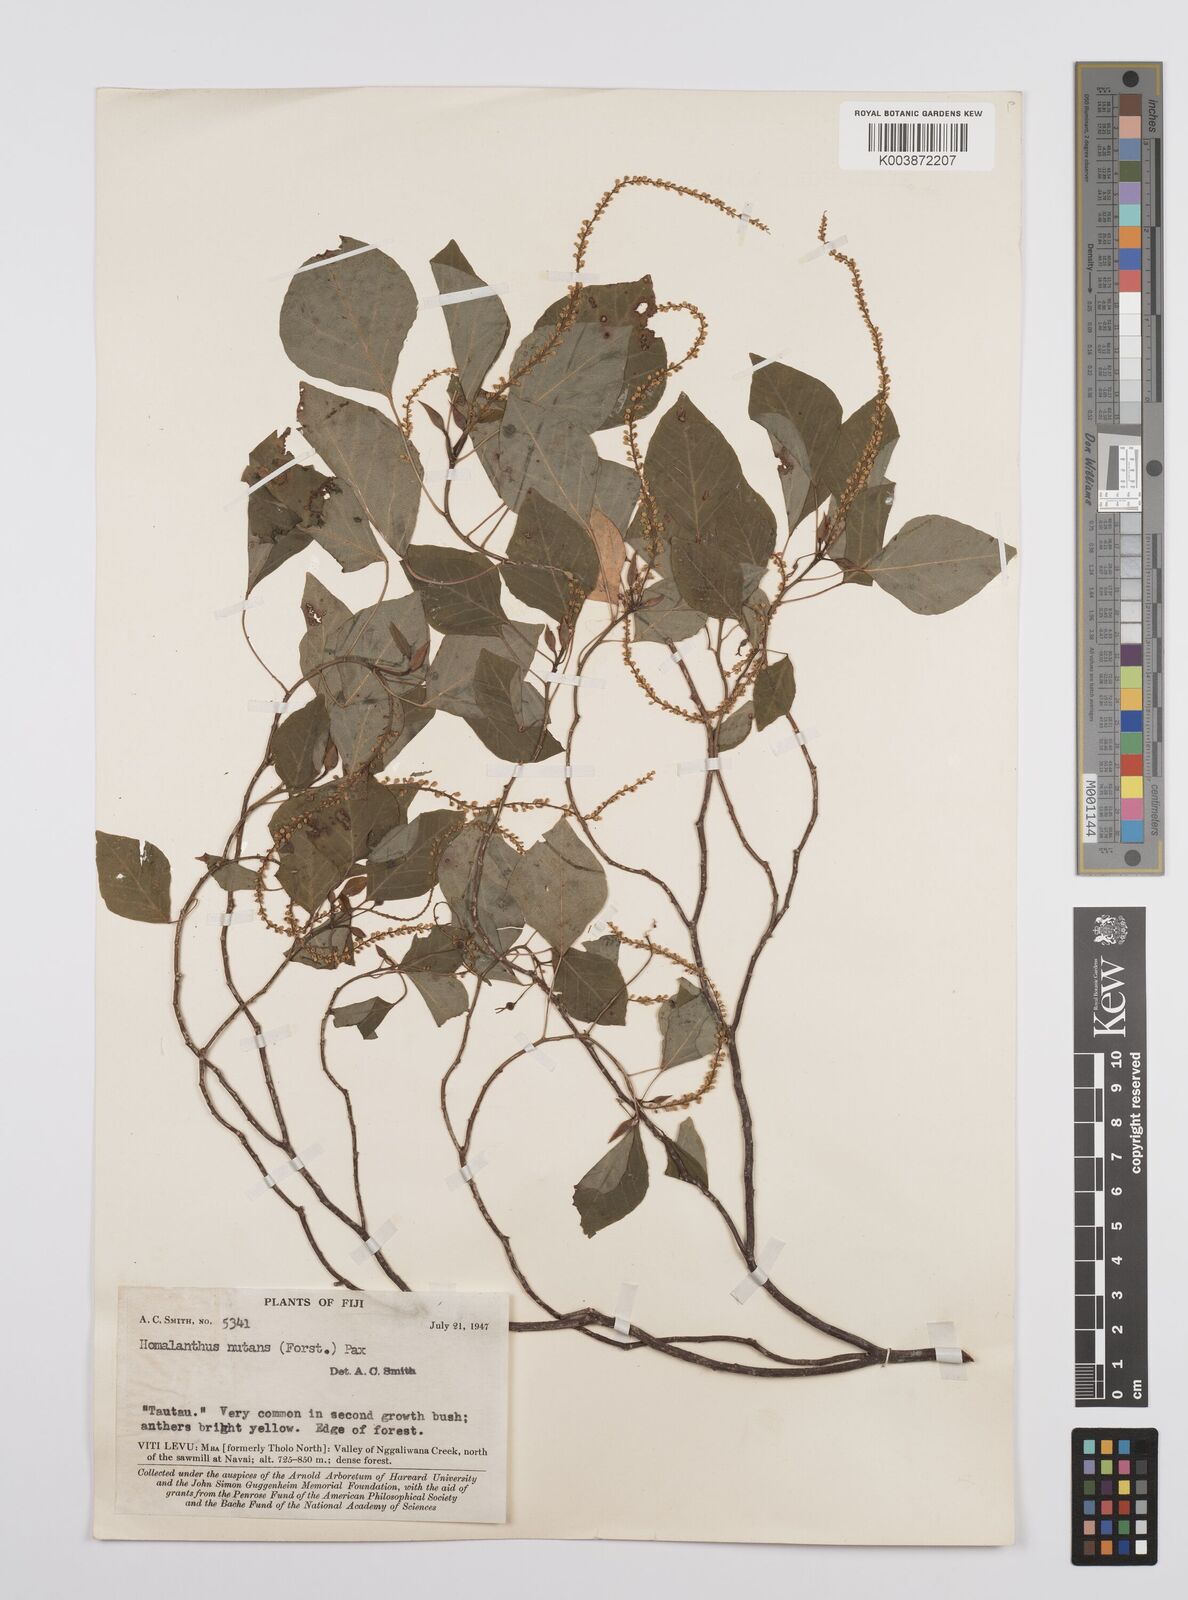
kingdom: Plantae
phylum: Tracheophyta
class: Magnoliopsida
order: Malpighiales
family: Euphorbiaceae
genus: Homalanthus
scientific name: Homalanthus nutans
